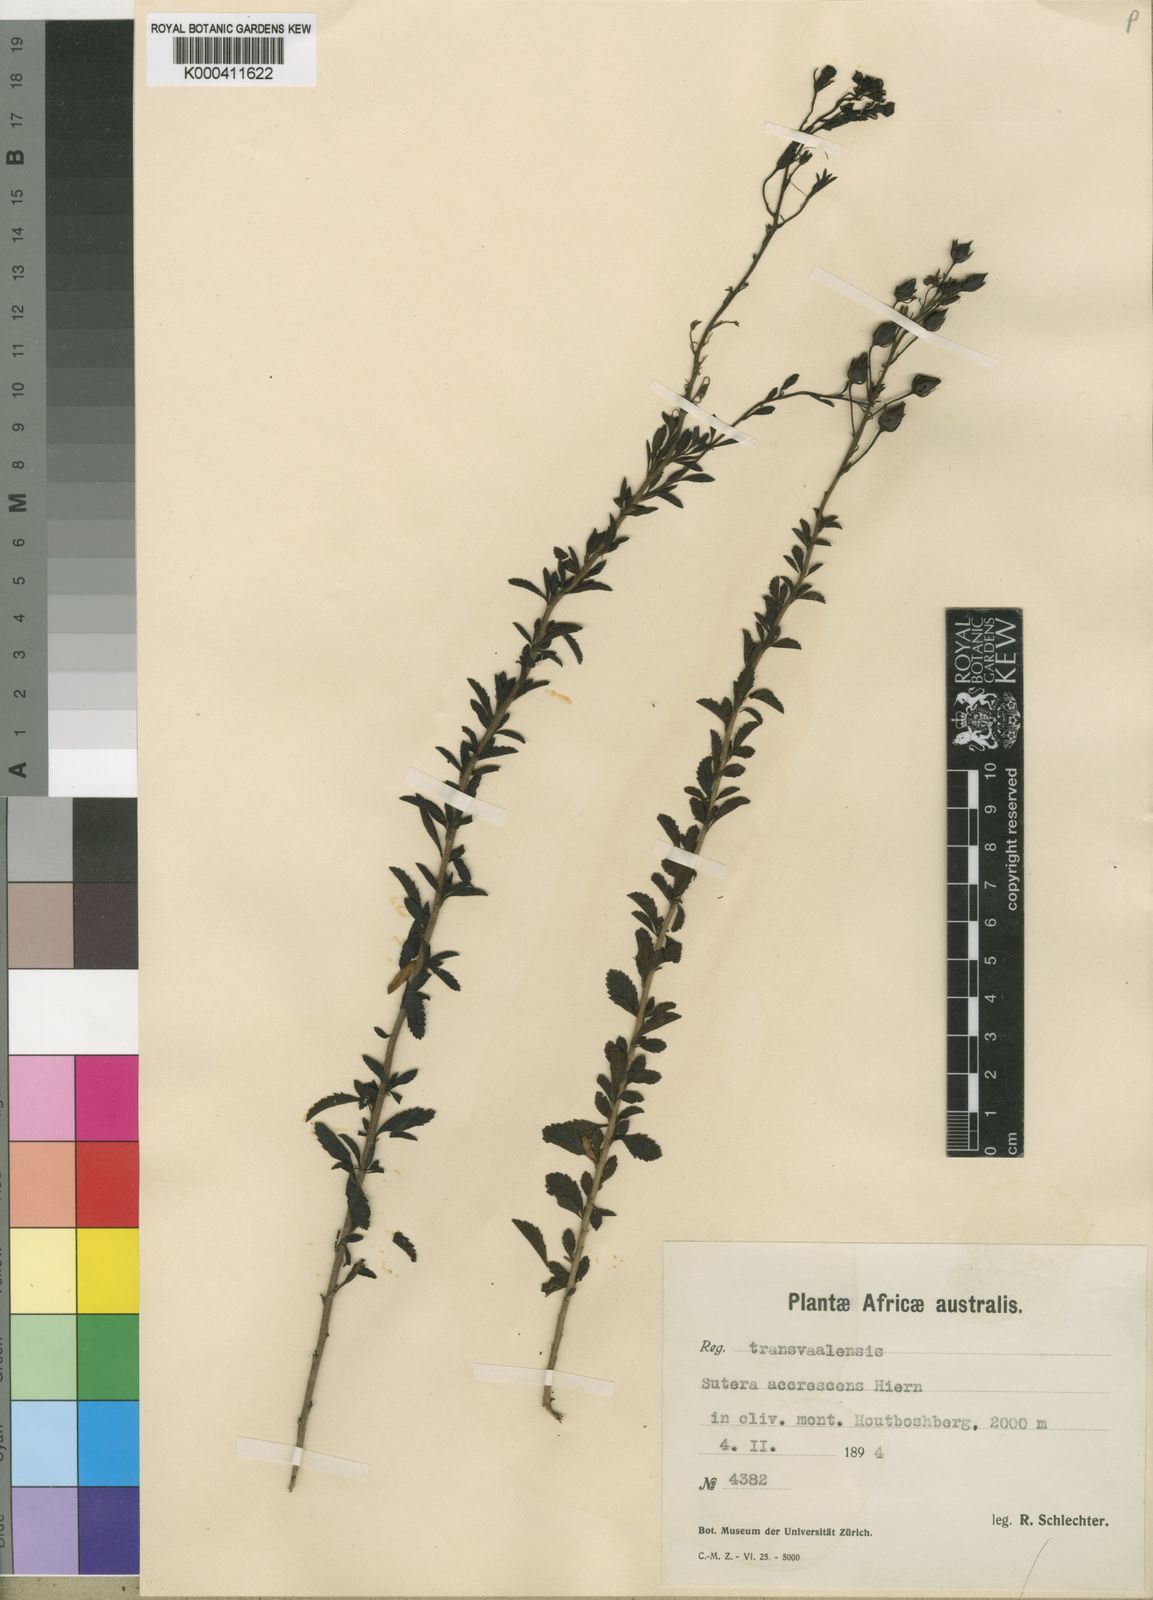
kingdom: Plantae
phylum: Tracheophyta
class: Magnoliopsida
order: Lamiales
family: Scrophulariaceae
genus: Jamesbrittenia
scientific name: Jamesbrittenia accrescens
